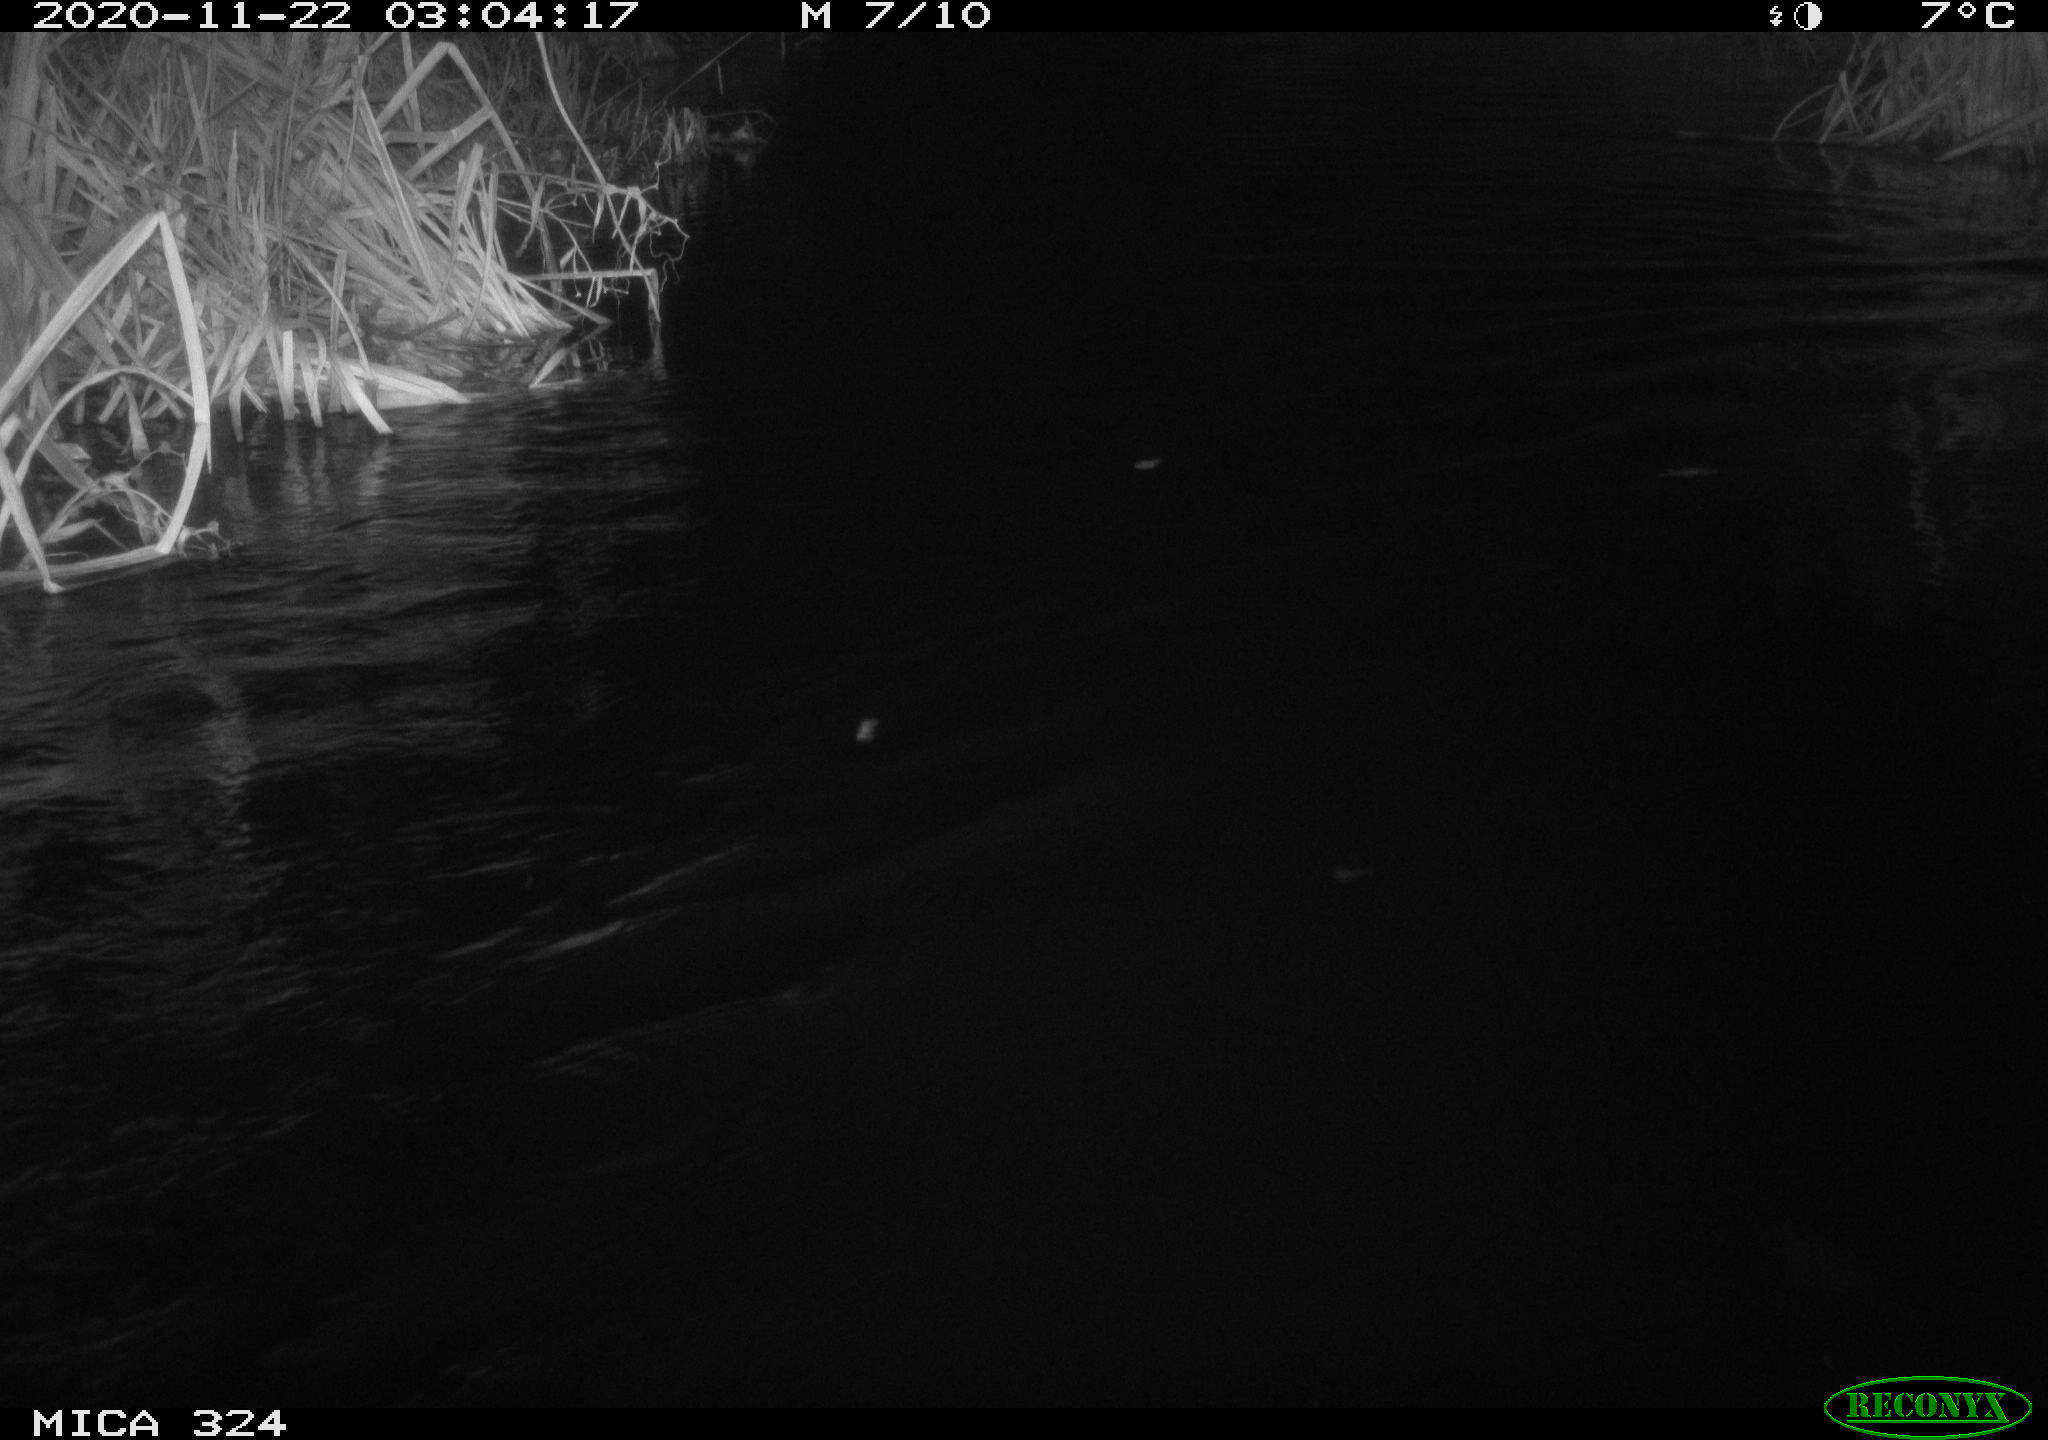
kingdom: Animalia
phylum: Chordata
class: Mammalia
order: Rodentia
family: Myocastoridae
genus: Myocastor
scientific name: Myocastor coypus
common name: Coypu
